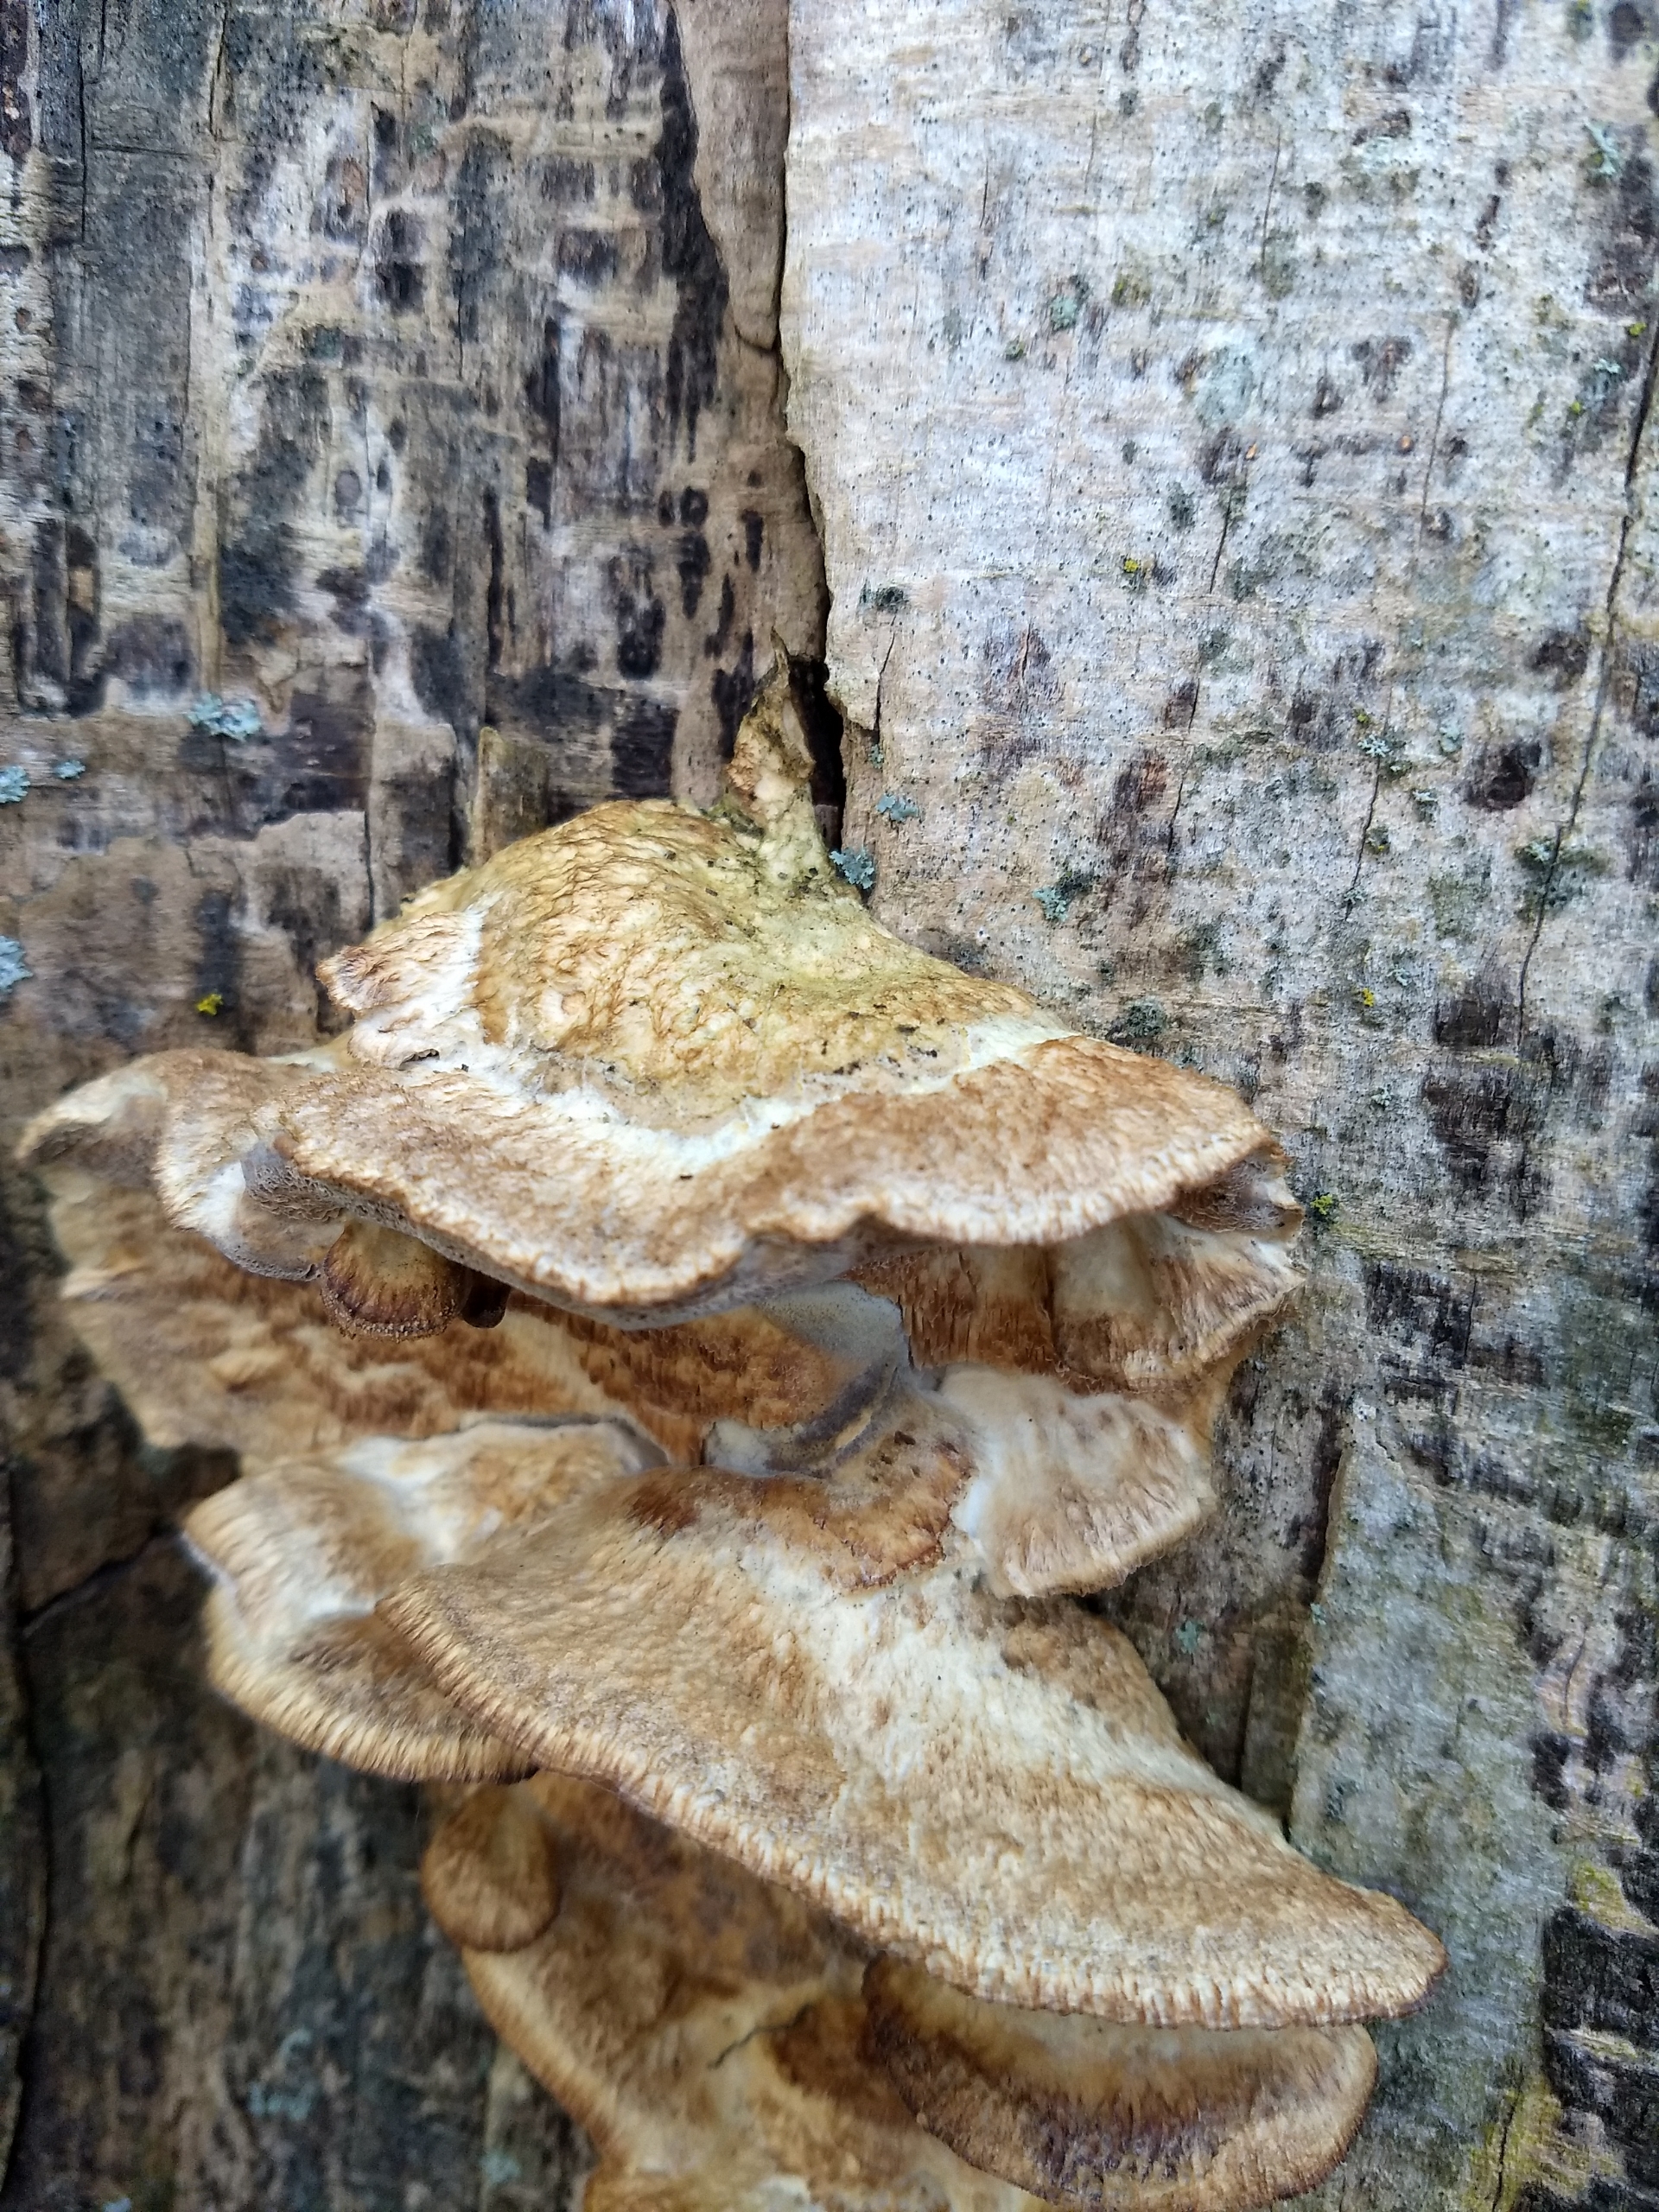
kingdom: Fungi
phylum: Basidiomycota
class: Agaricomycetes
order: Polyporales
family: Phanerochaetaceae
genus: Bjerkandera
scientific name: Bjerkandera
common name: Sodporesvamp
